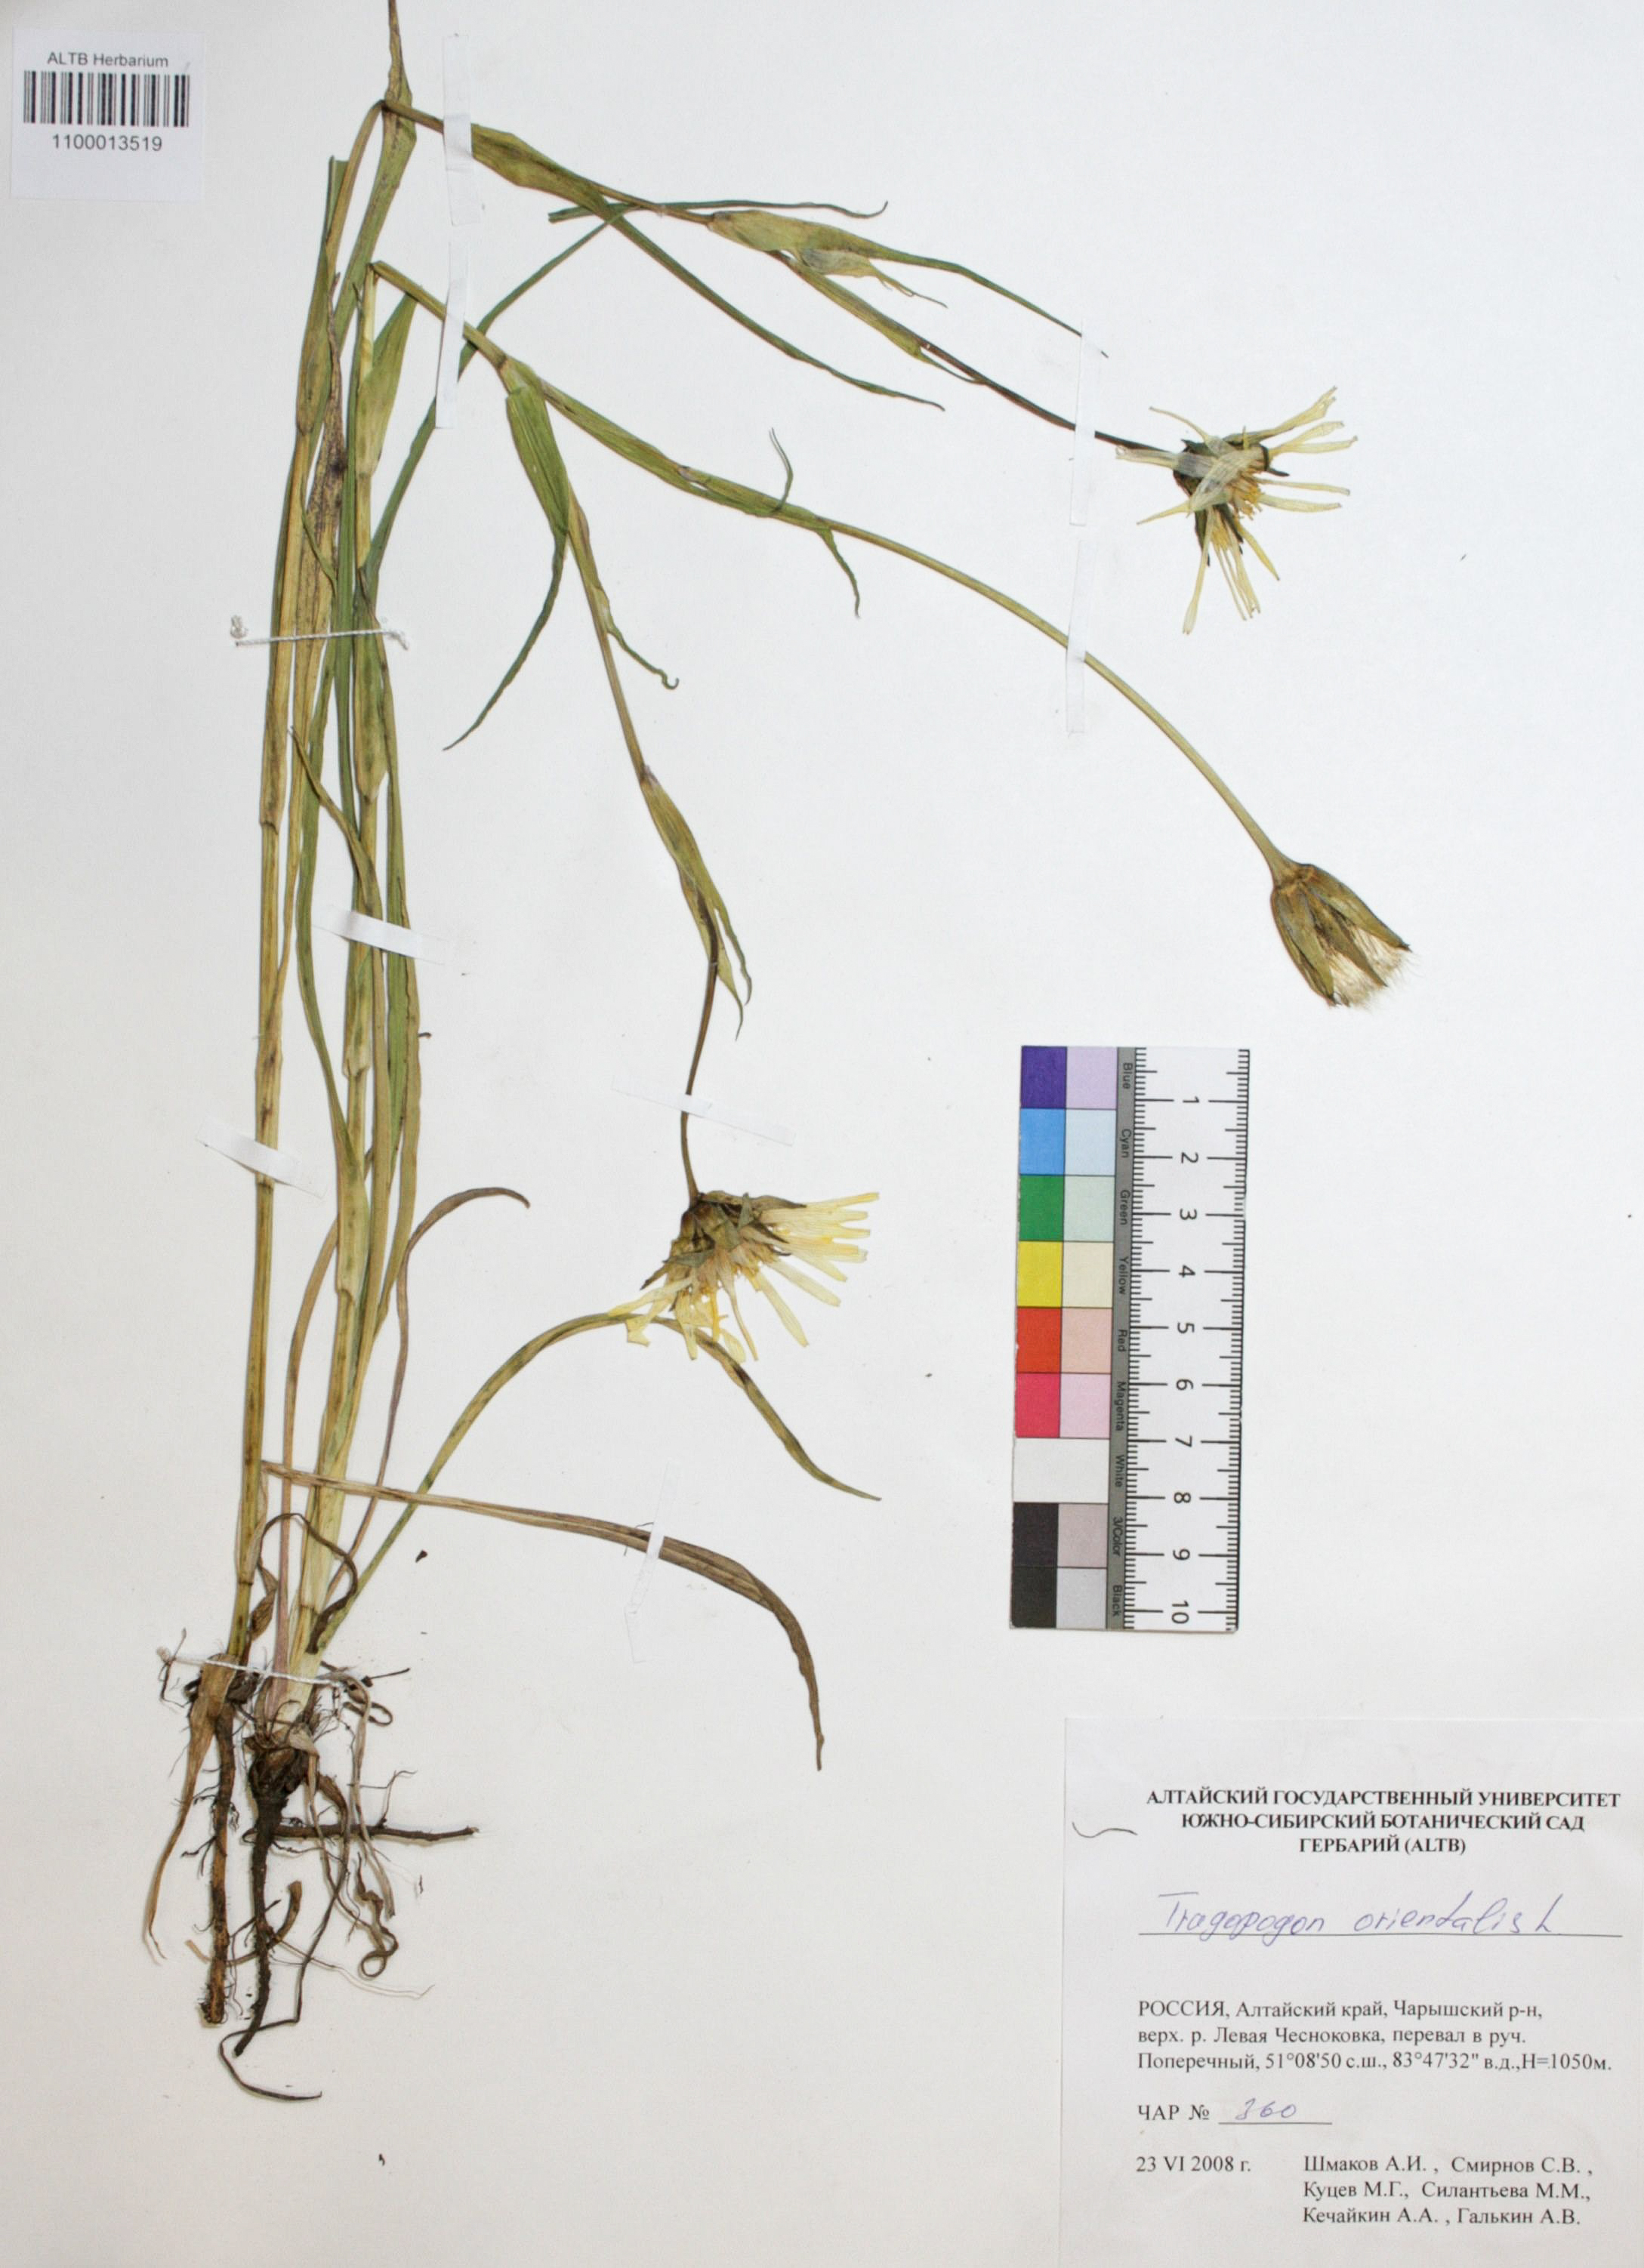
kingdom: Plantae
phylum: Tracheophyta
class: Magnoliopsida
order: Asterales
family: Asteraceae
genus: Tragopogon
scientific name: Tragopogon orientalis
